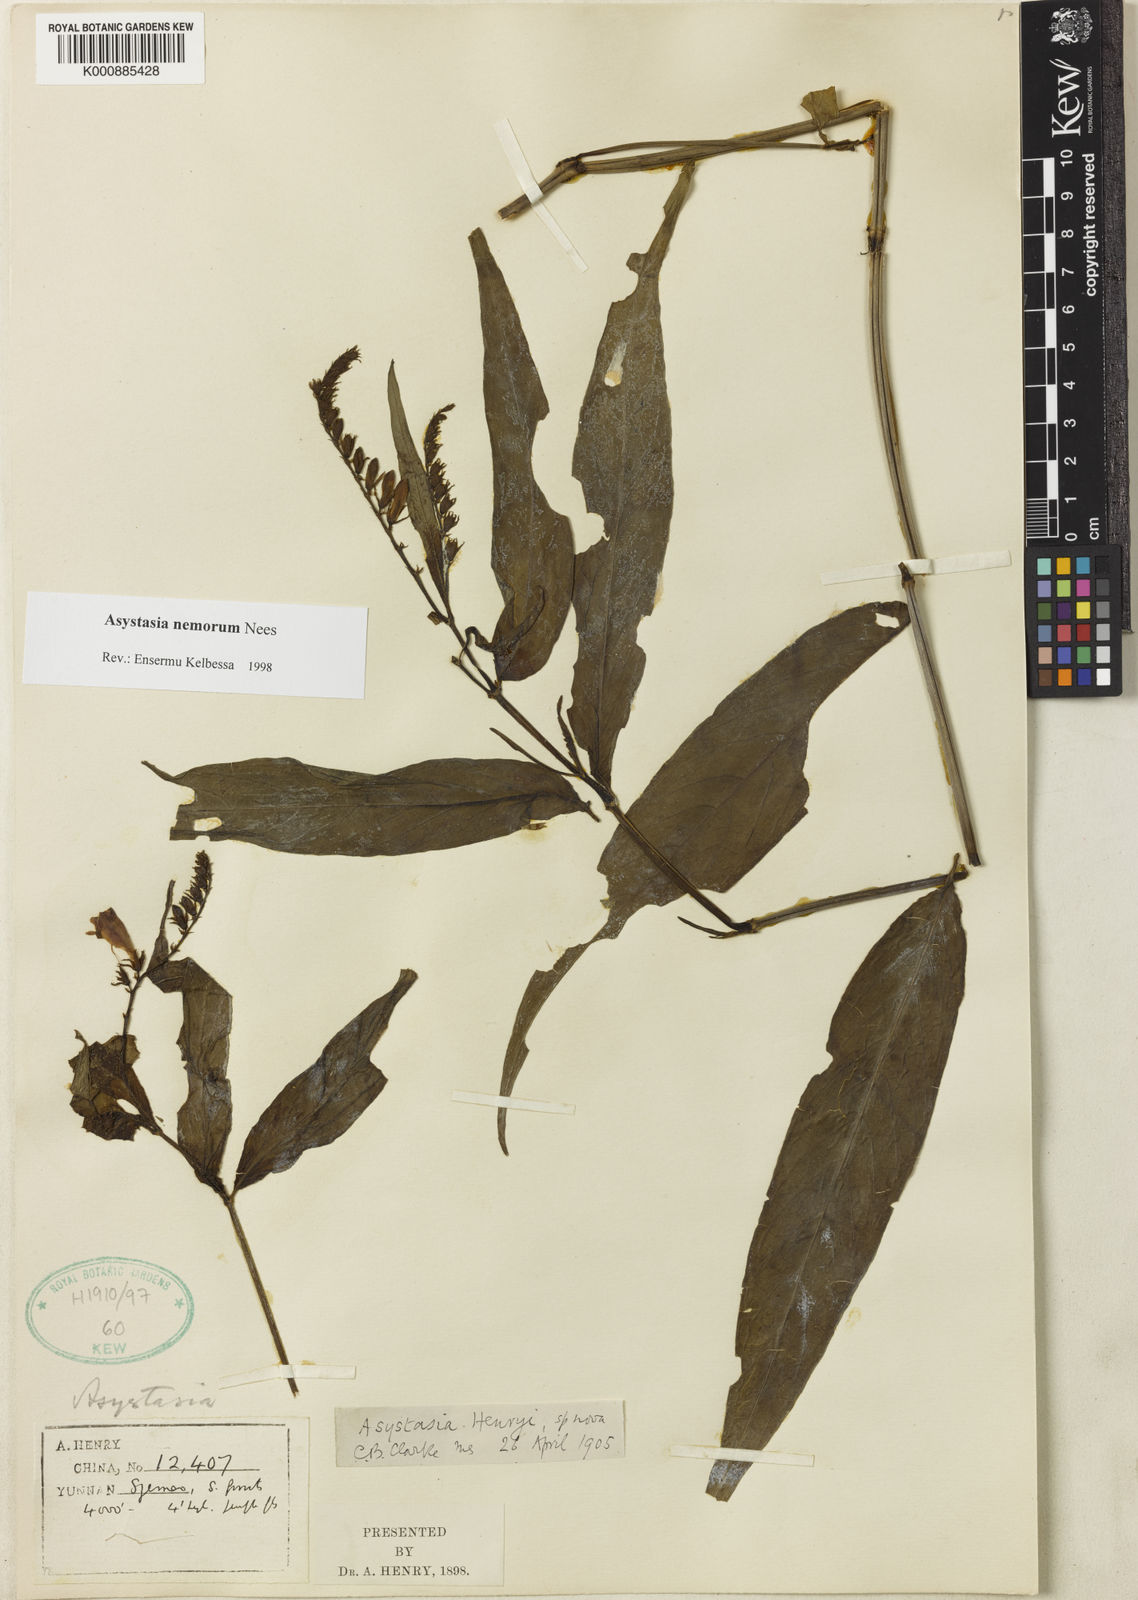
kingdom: Plantae
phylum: Tracheophyta
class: Magnoliopsida
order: Lamiales
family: Acanthaceae
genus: Asystasia
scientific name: Asystasia nemorum
